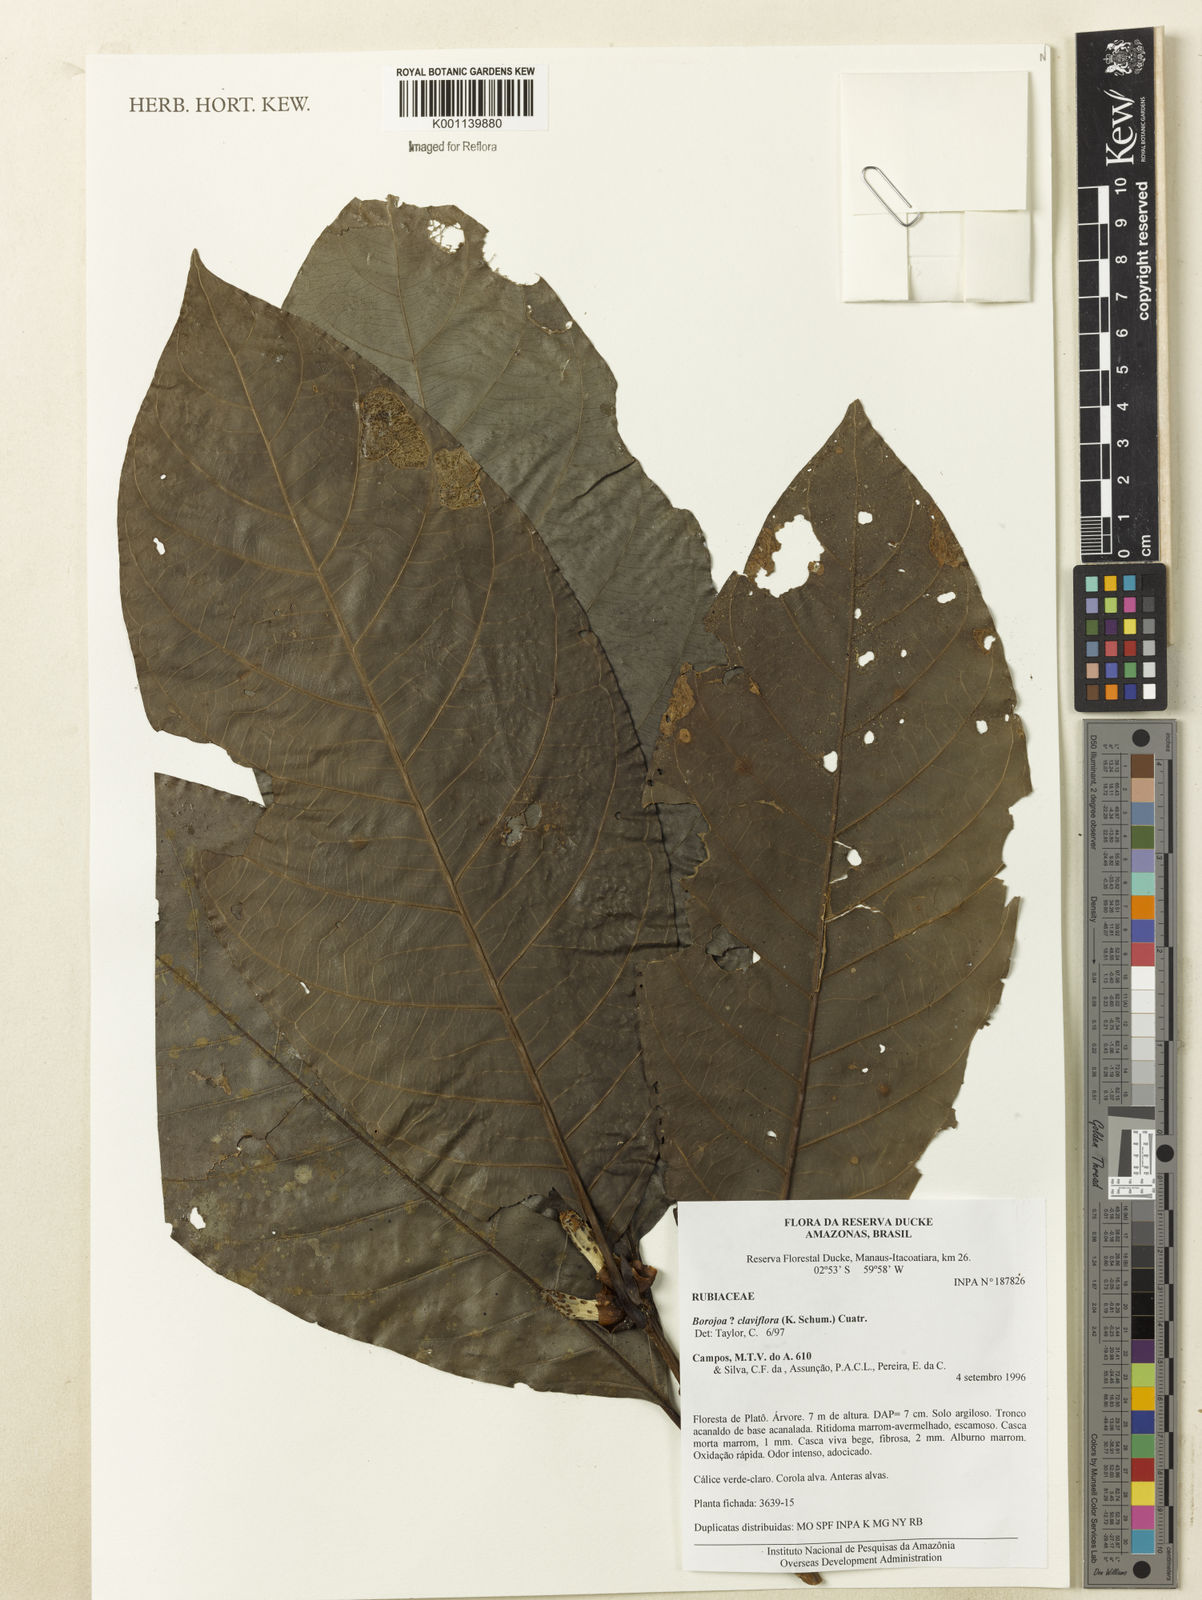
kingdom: Plantae
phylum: Tracheophyta
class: Magnoliopsida
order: Gentianales
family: Rubiaceae
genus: Alibertia
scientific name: Alibertia claviflora
